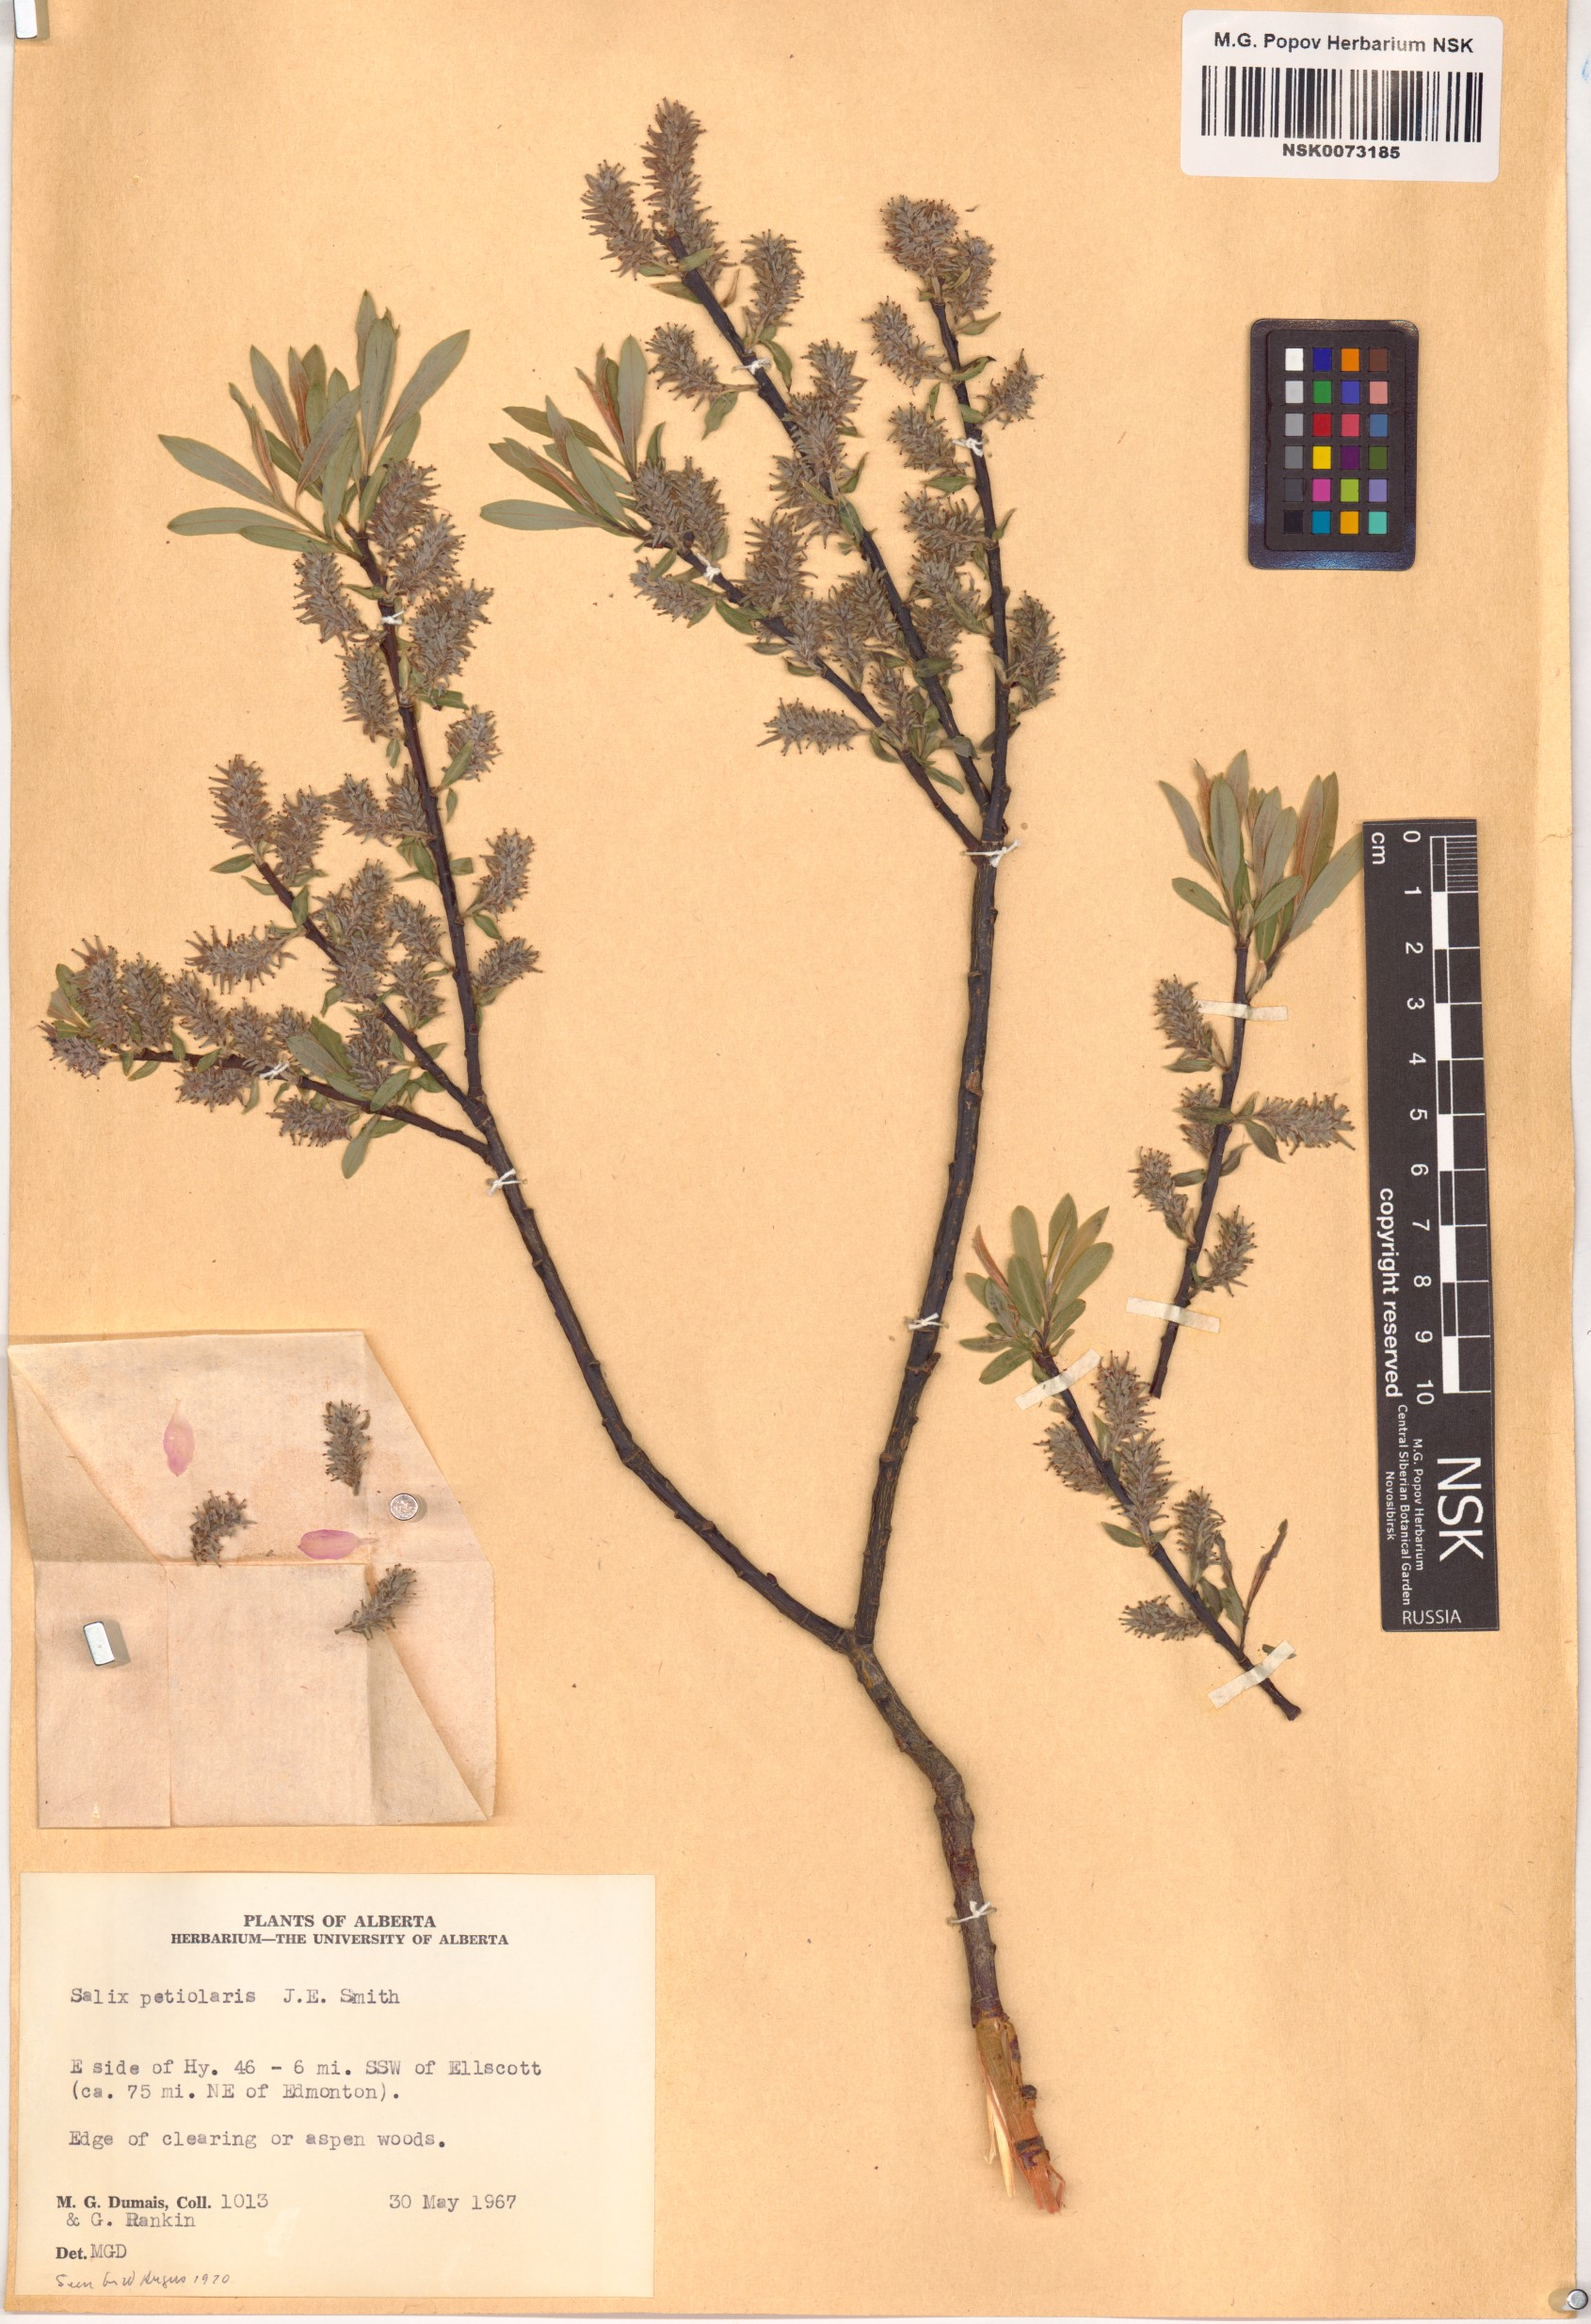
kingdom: Plantae
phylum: Tracheophyta
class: Magnoliopsida
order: Malpighiales
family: Salicaceae
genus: Salix
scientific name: Salix petiolaris
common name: Slender willow
